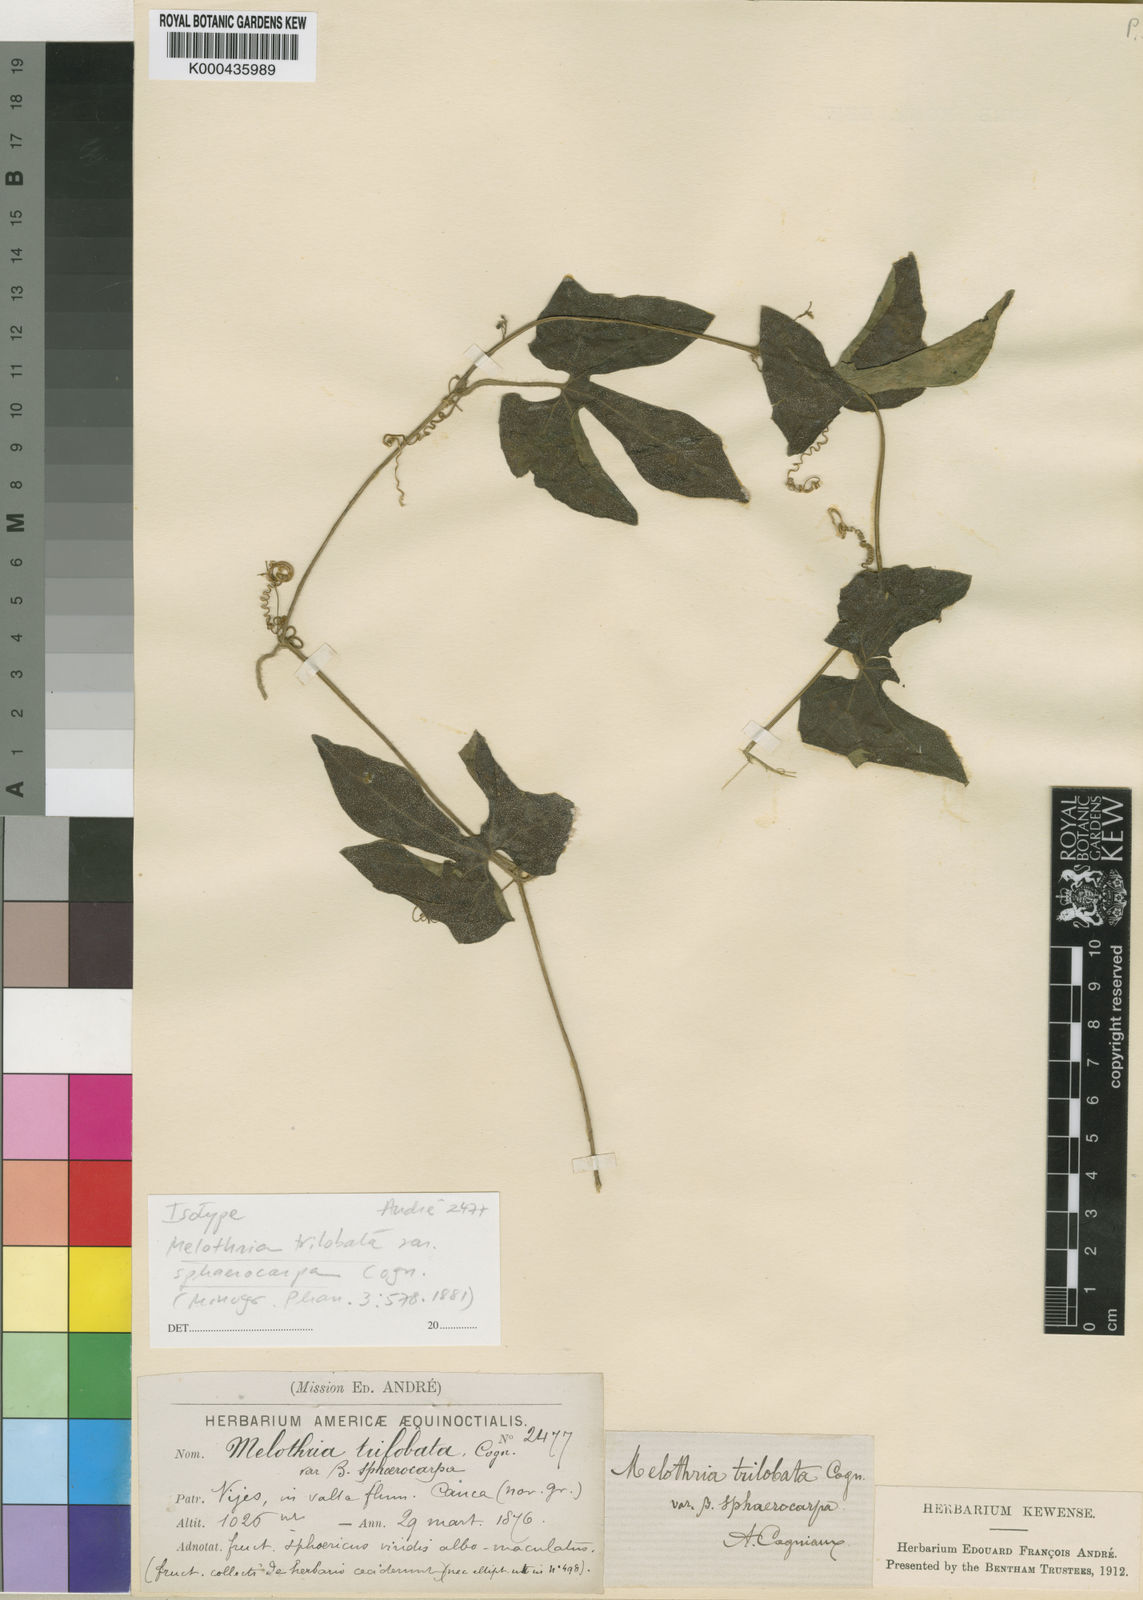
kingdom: Plantae
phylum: Tracheophyta
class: Magnoliopsida
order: Cucurbitales
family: Cucurbitaceae
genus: Melothria
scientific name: Melothria trilobata
